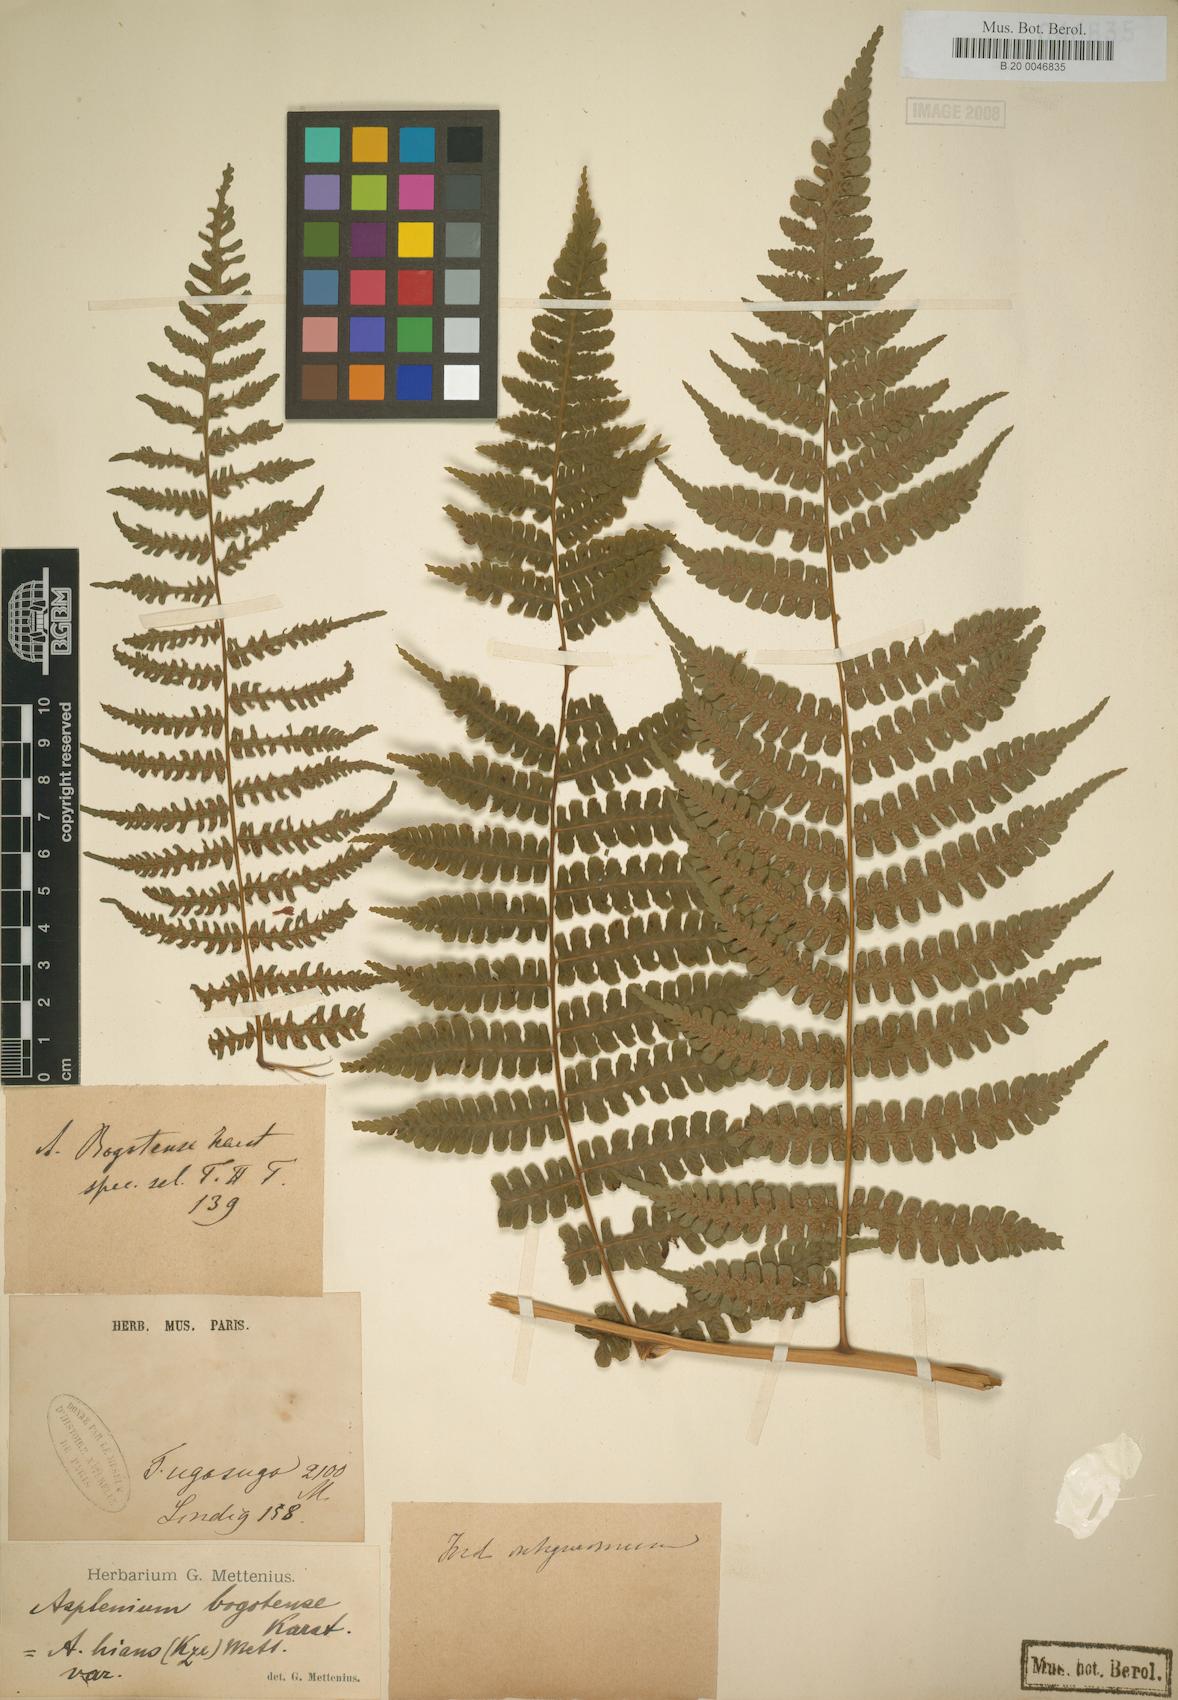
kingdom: Plantae
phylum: Tracheophyta
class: Polypodiopsida
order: Polypodiales
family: Athyriaceae
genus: Diplazium
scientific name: Diplazium bogotense
